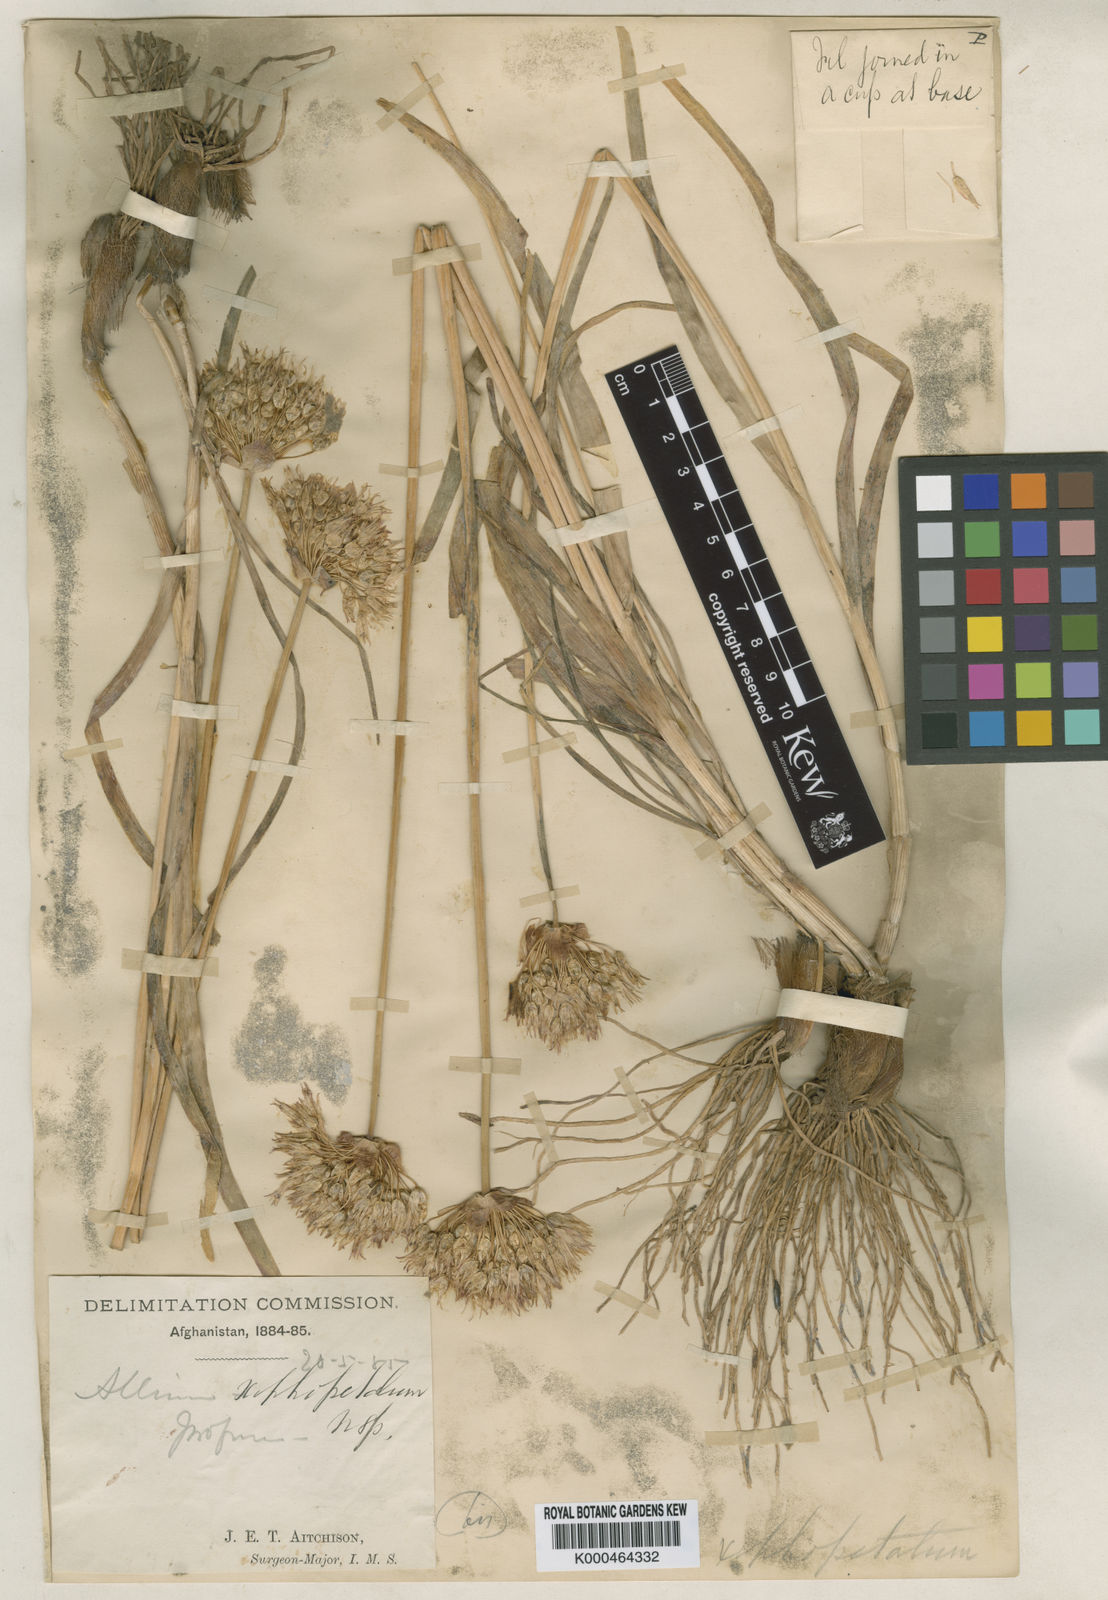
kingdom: Plantae
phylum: Tracheophyta
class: Liliopsida
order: Asparagales
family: Amaryllidaceae
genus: Allium
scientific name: Allium xiphopetalum
